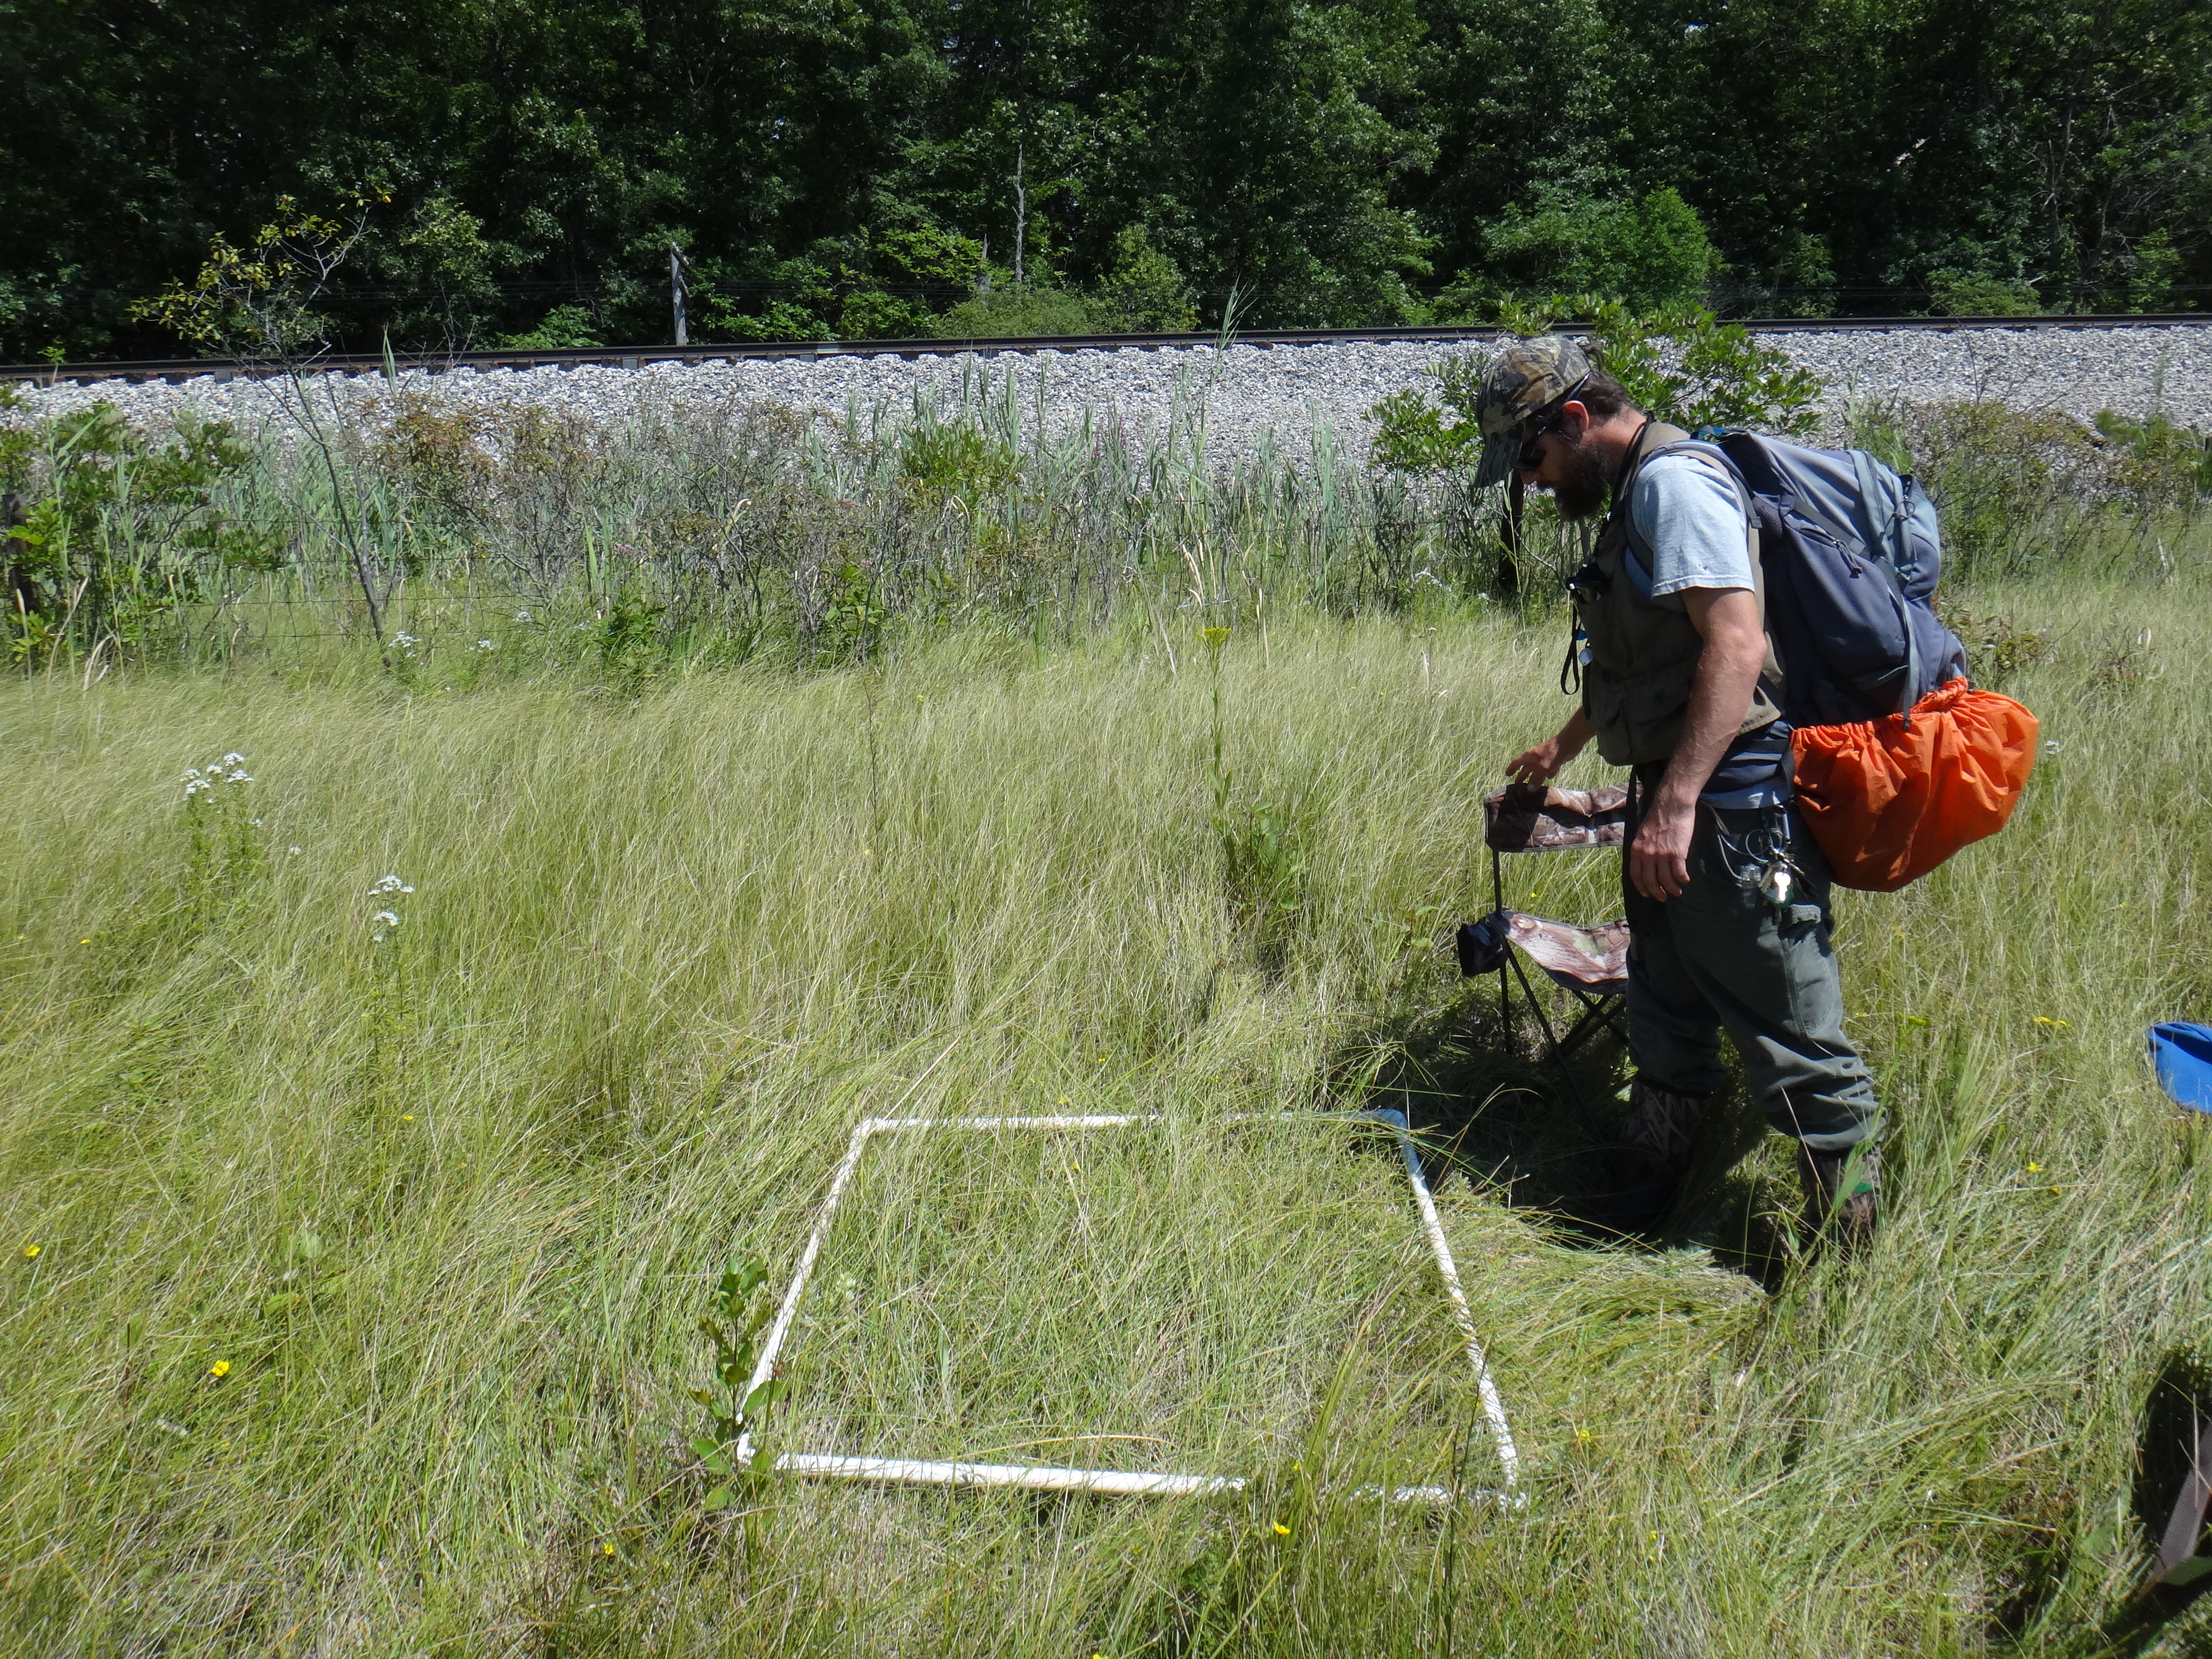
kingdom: Plantae
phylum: Tracheophyta
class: Liliopsida
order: Poales
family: Cyperaceae
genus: Eleocharis
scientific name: Eleocharis rostellata
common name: Walking sedge
